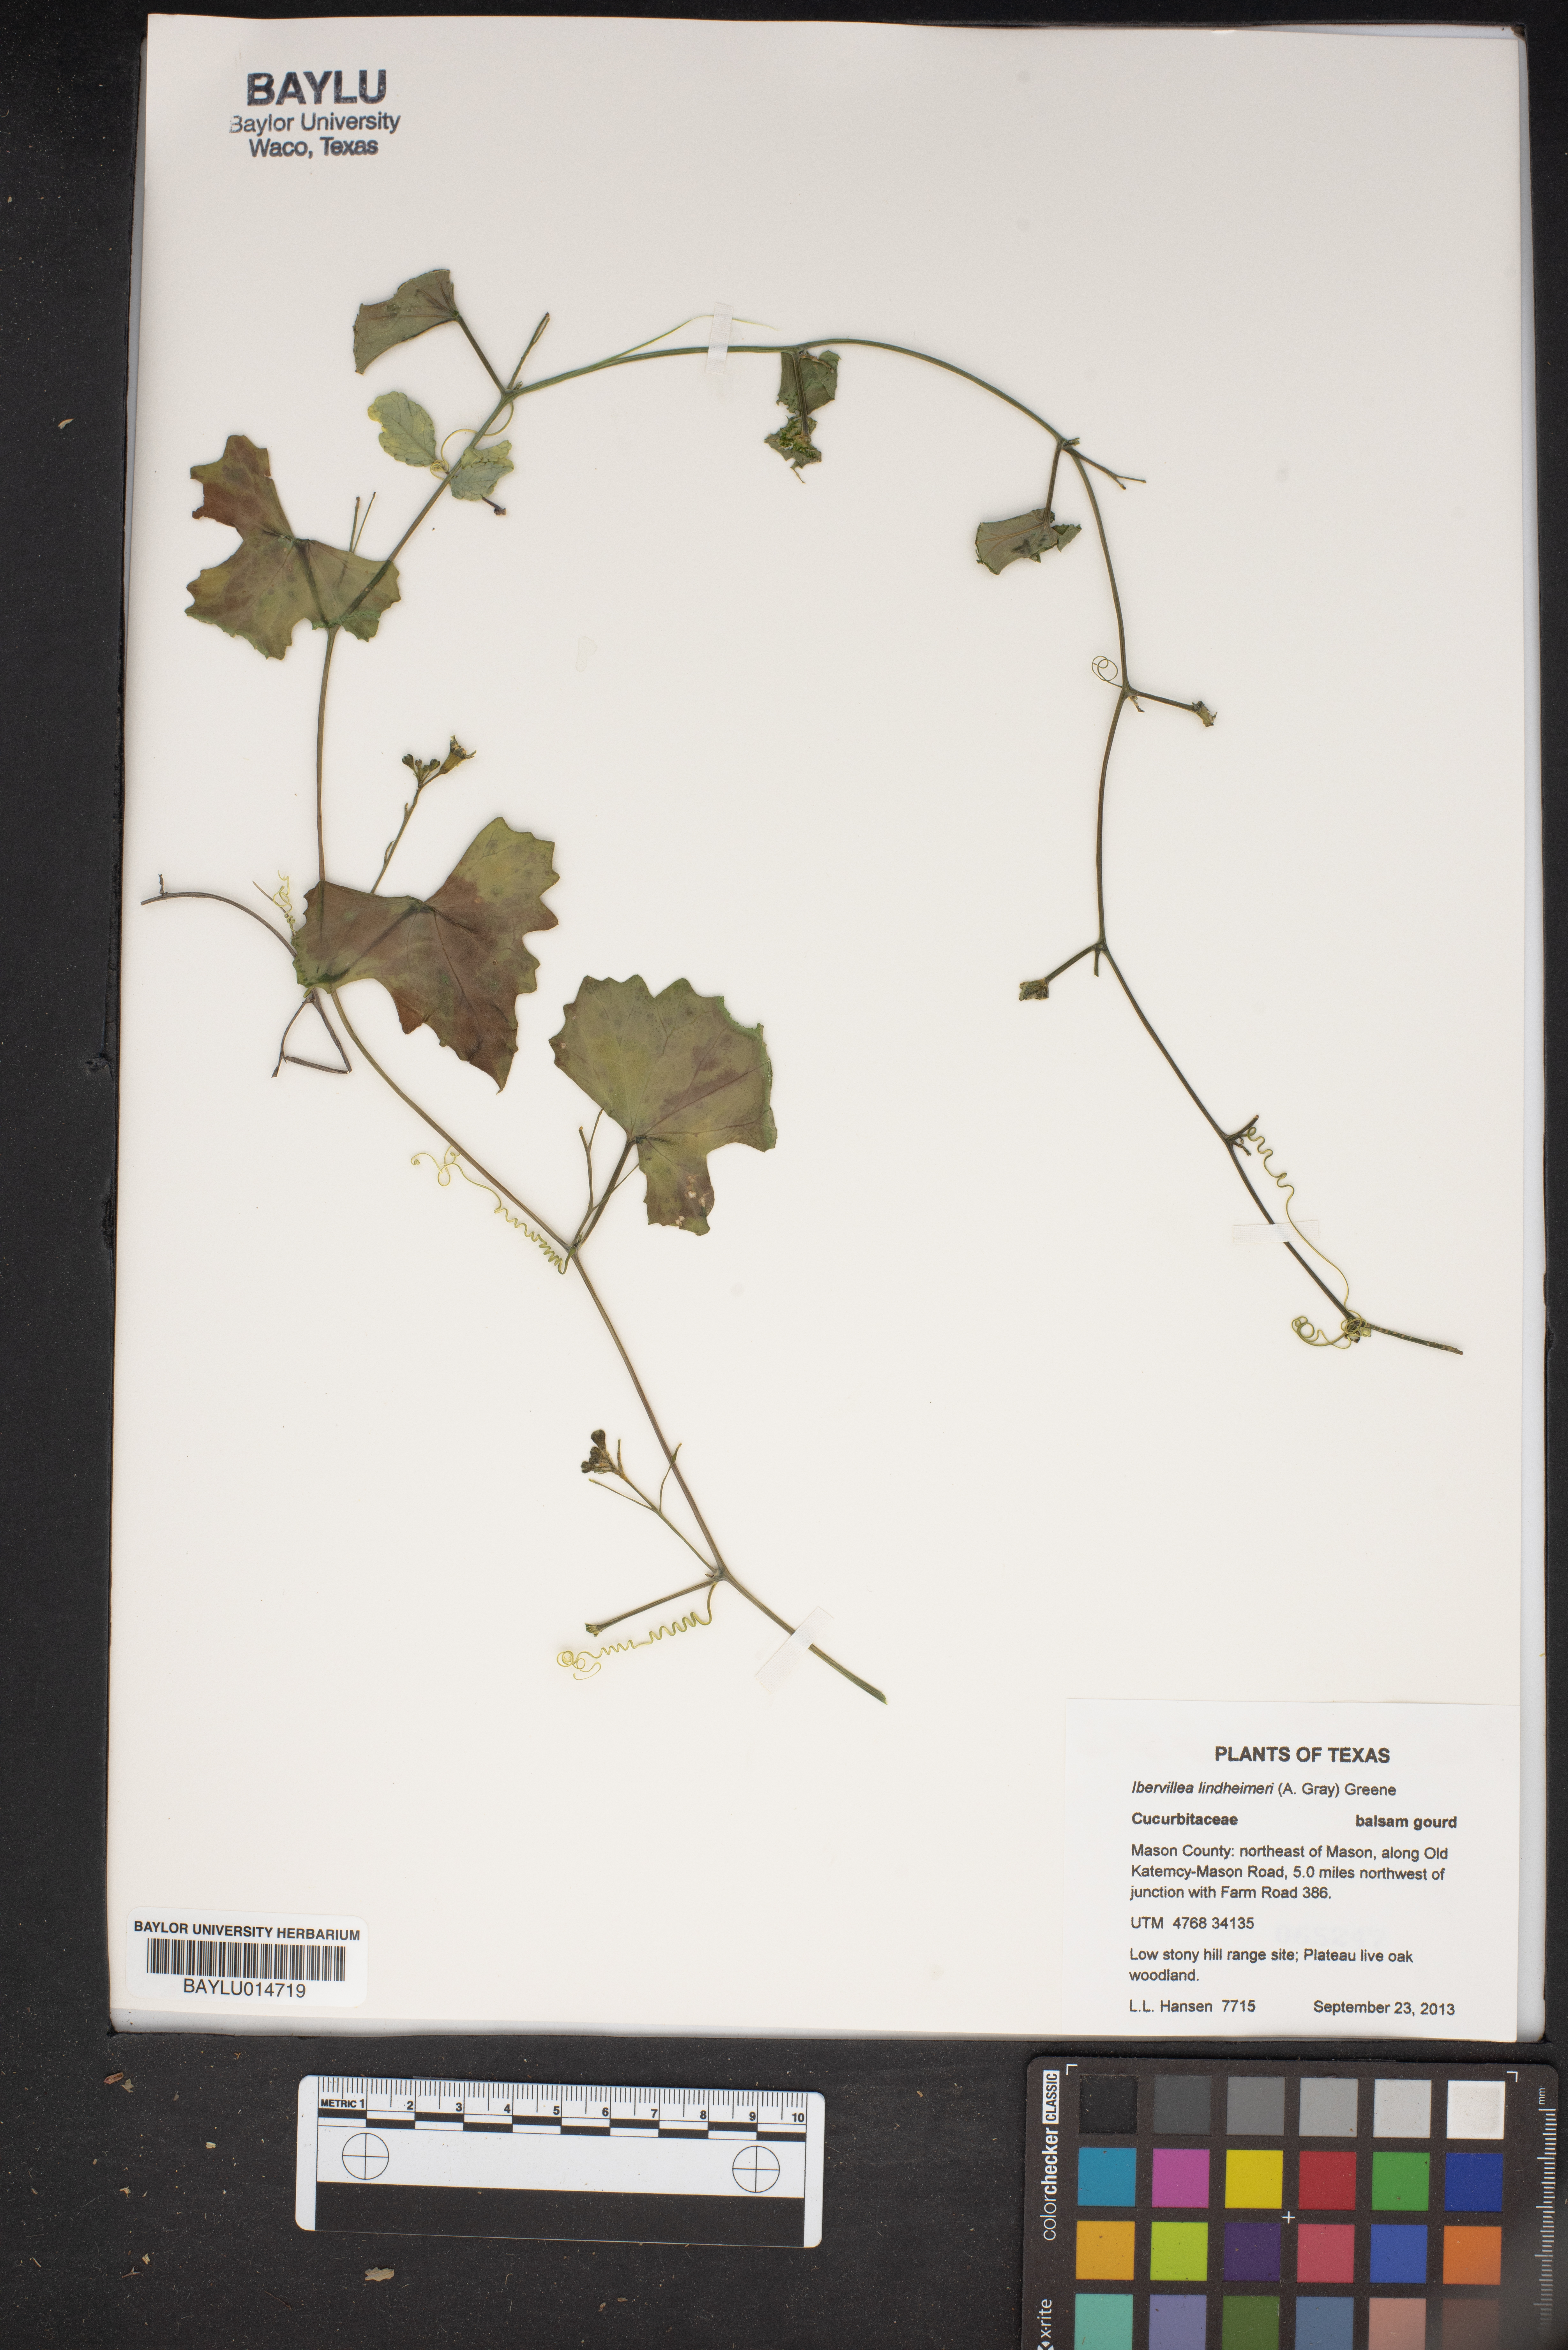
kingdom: Plantae
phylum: Tracheophyta
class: Magnoliopsida
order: Cucurbitales
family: Cucurbitaceae
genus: Ibervillea
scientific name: Ibervillea lindheimeri
